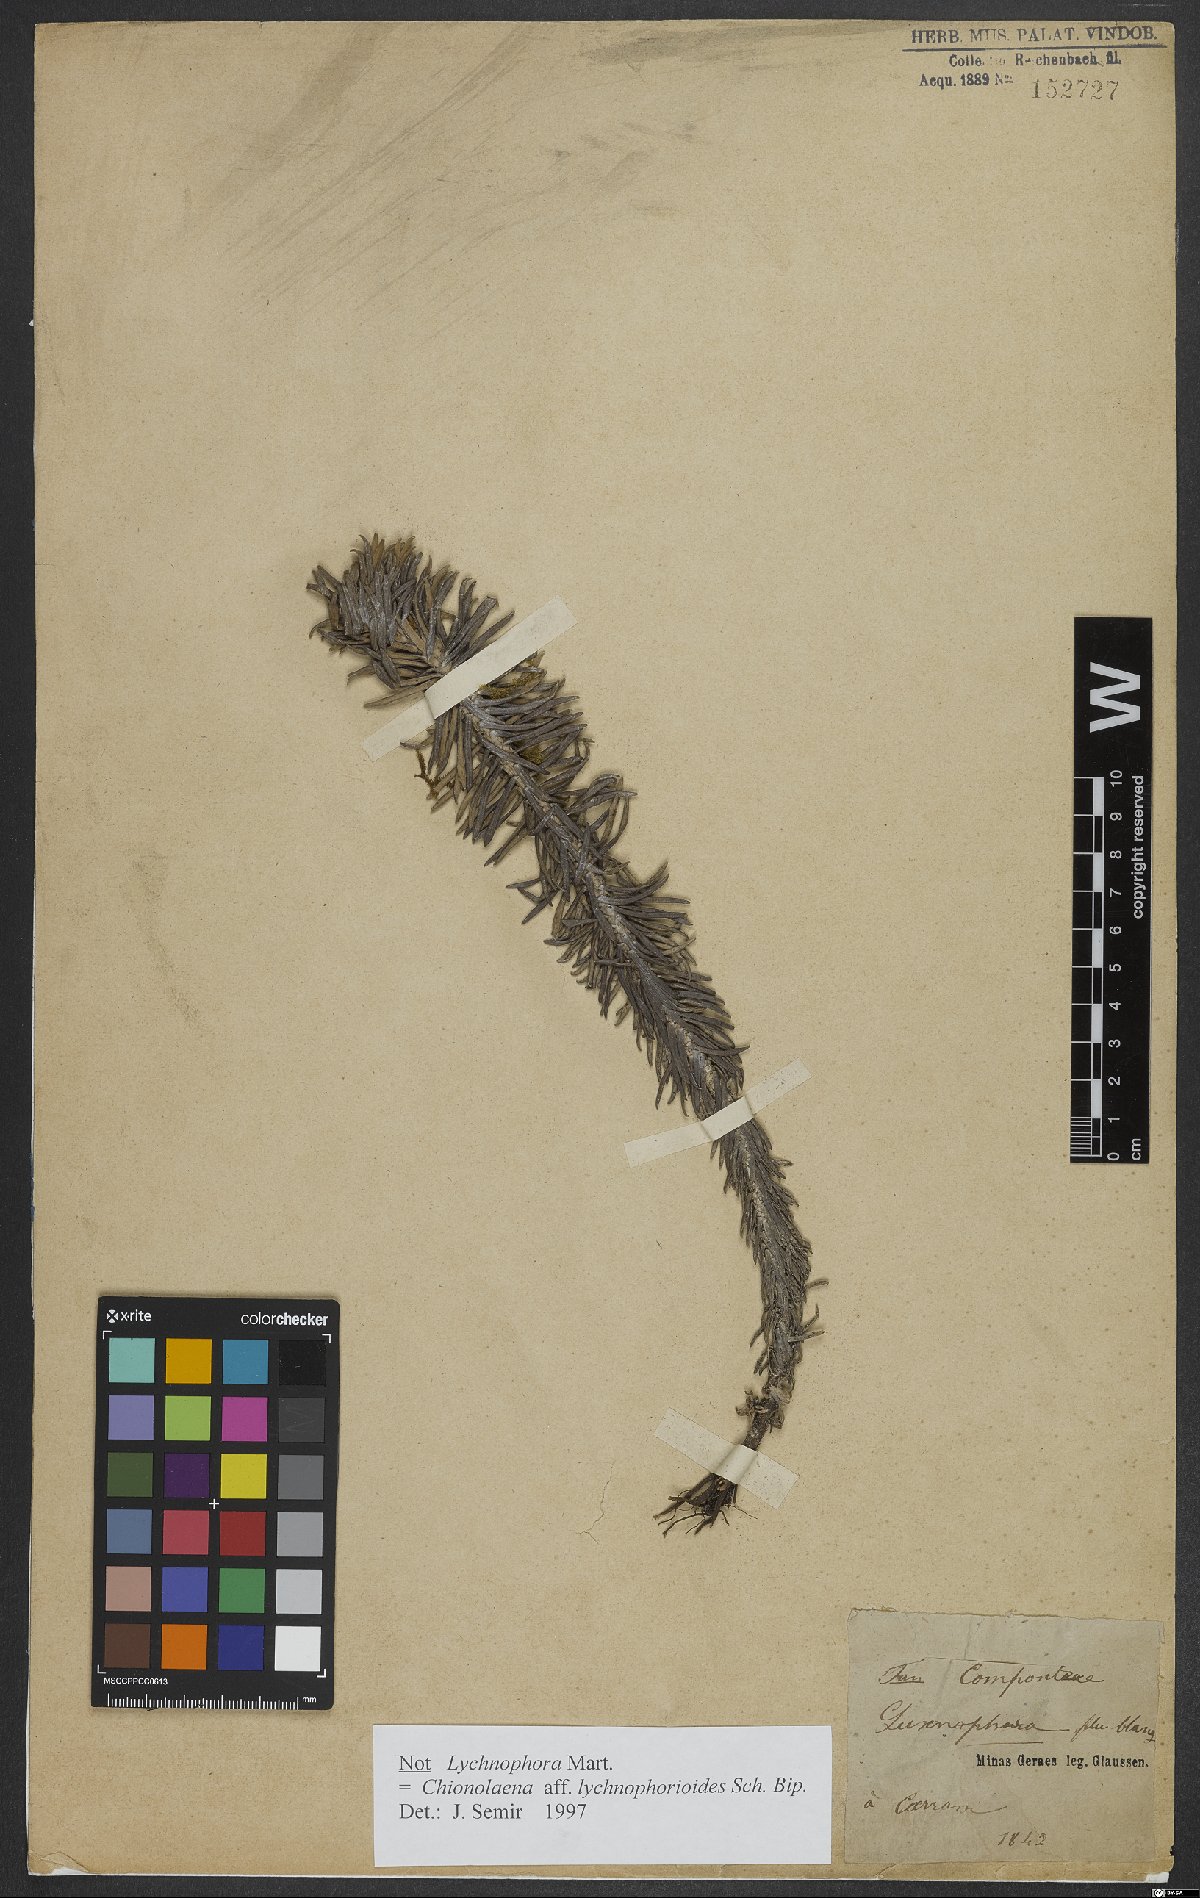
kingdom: Plantae
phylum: Tracheophyta
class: Magnoliopsida
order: Asterales
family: Asteraceae
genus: Chionolaena
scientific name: Chionolaena lychnophorioides
